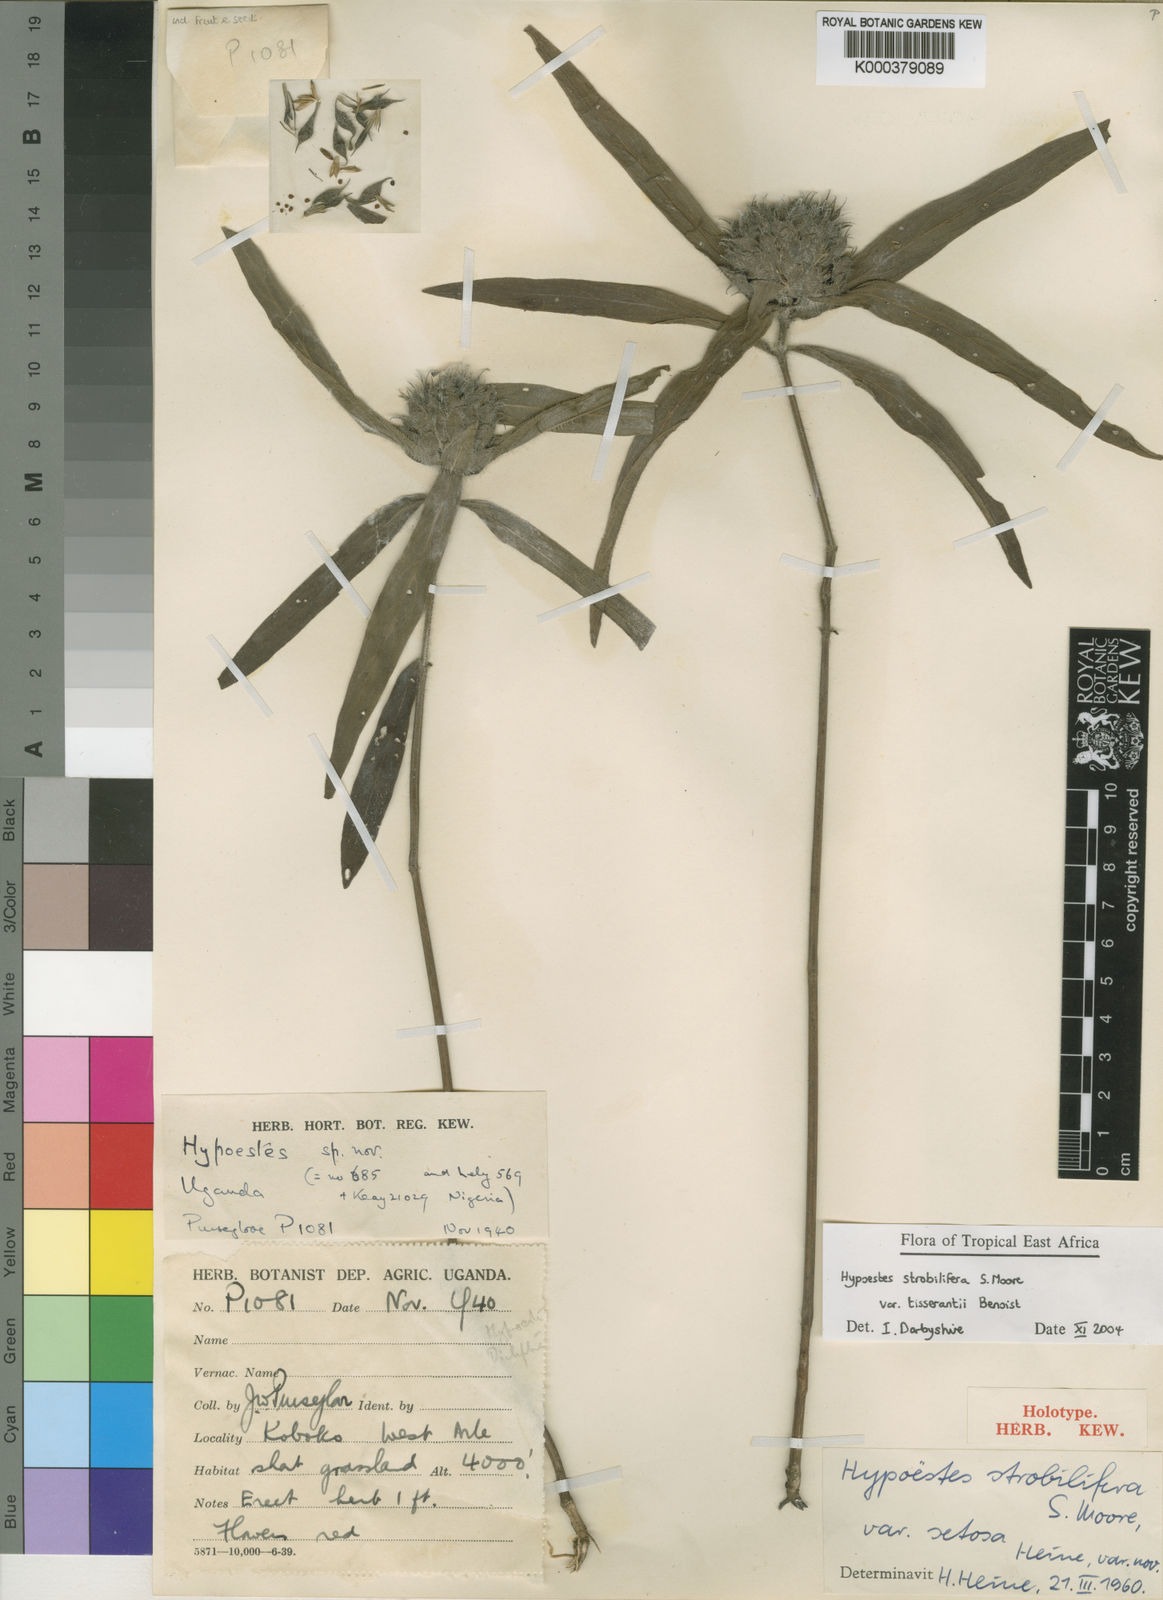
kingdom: Plantae
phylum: Tracheophyta
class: Magnoliopsida
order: Lamiales
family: Acanthaceae
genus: Hypoestes
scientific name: Hypoestes strobilifera
